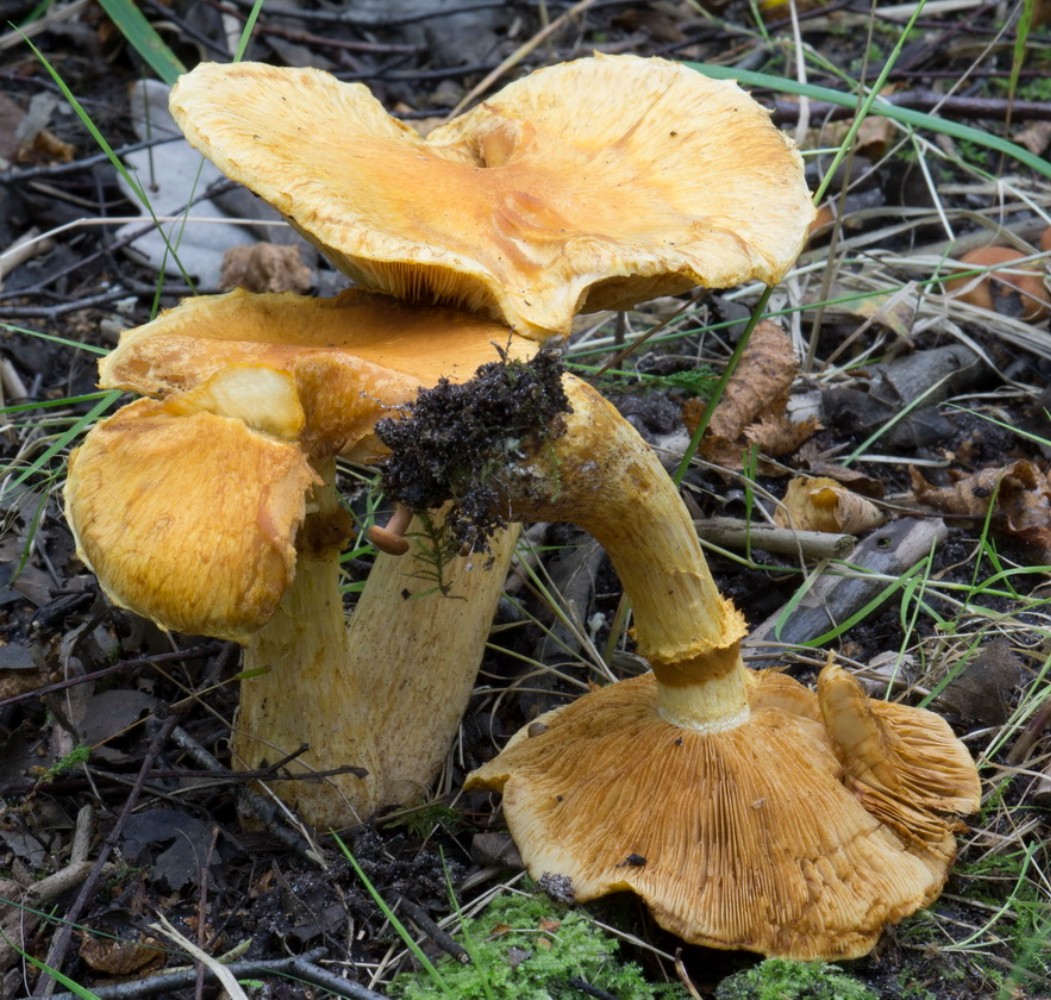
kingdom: Fungi
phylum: Basidiomycota
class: Agaricomycetes
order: Agaricales
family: Hymenogastraceae
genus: Gymnopilus
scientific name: Gymnopilus spectabilis
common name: fibret flammehat
